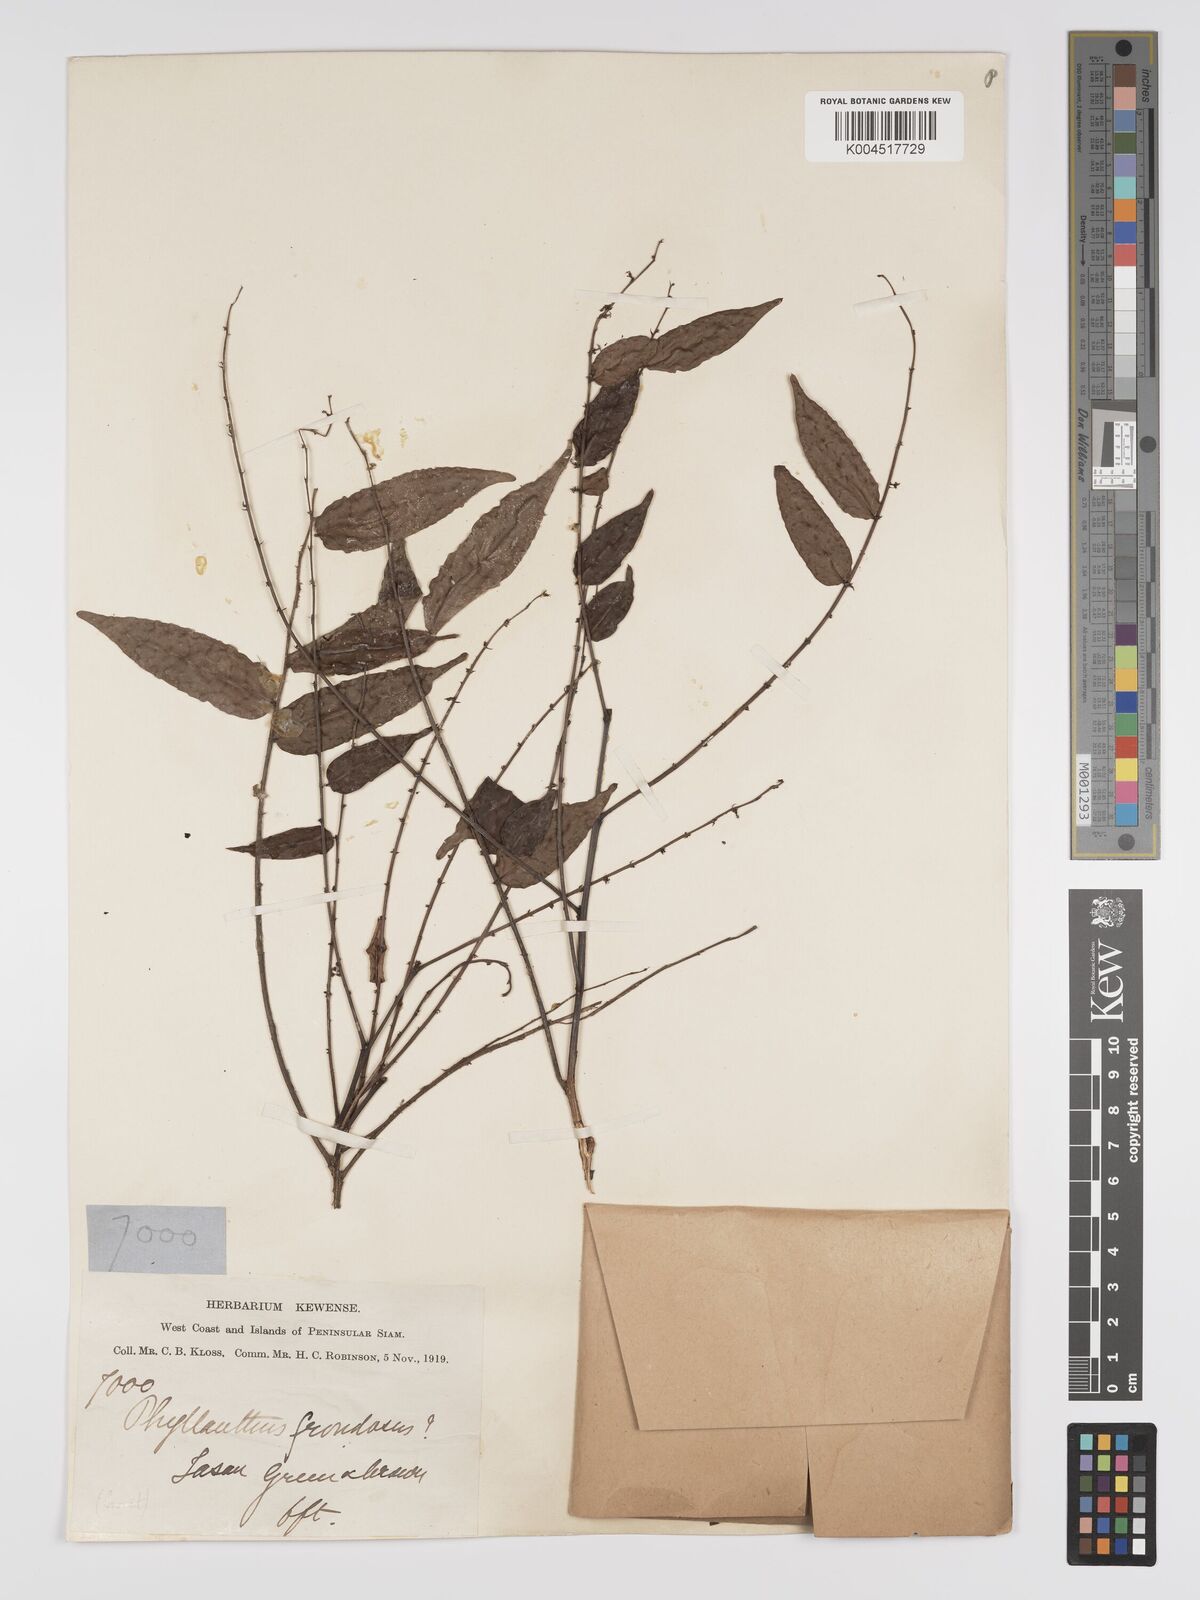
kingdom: Plantae
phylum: Tracheophyta
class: Magnoliopsida
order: Malpighiales
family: Phyllanthaceae
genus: Phyllanthus
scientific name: Phyllanthus
